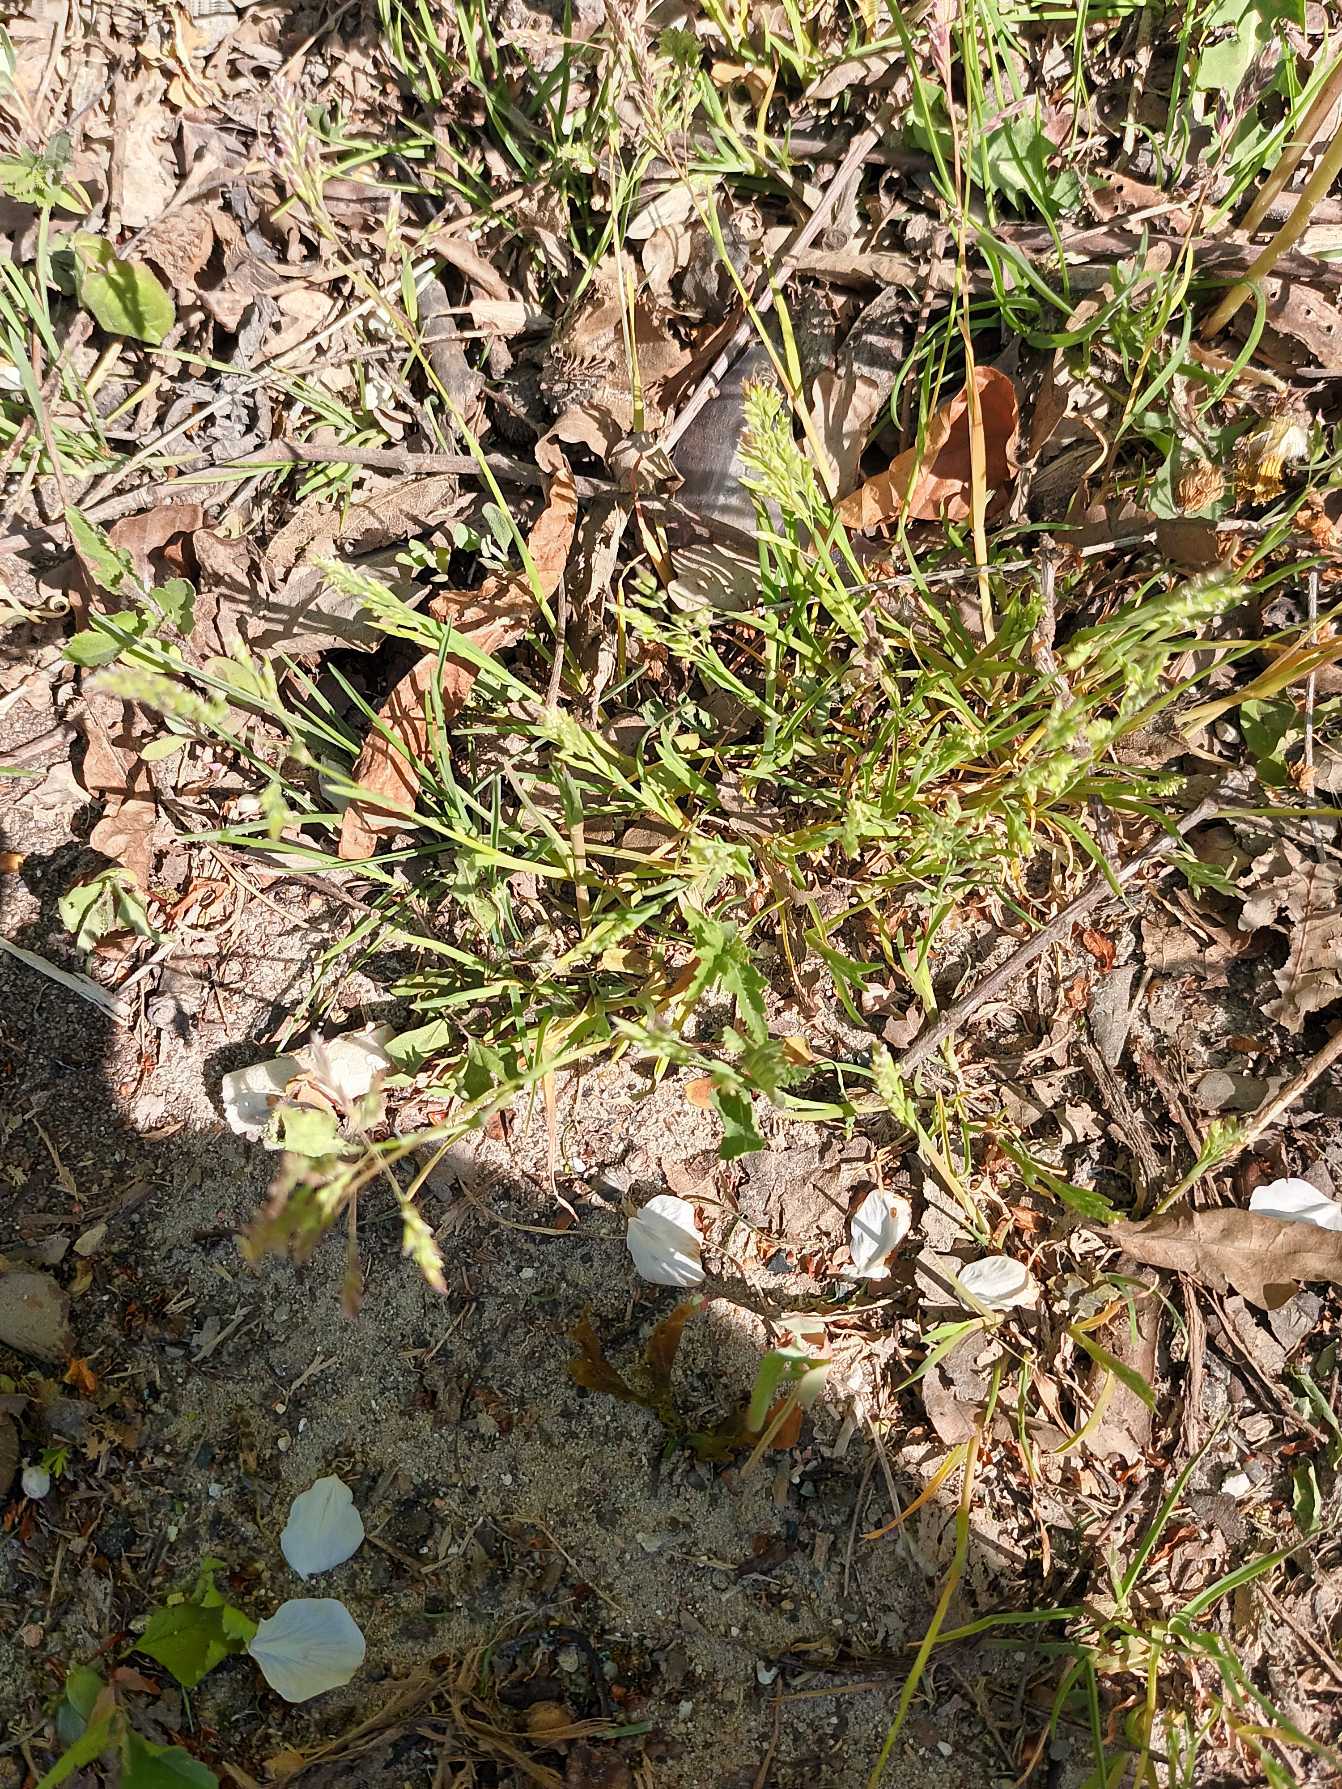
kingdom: Plantae
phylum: Tracheophyta
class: Liliopsida
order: Poales
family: Poaceae
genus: Poa
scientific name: Poa annua
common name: Enårig rapgræs
